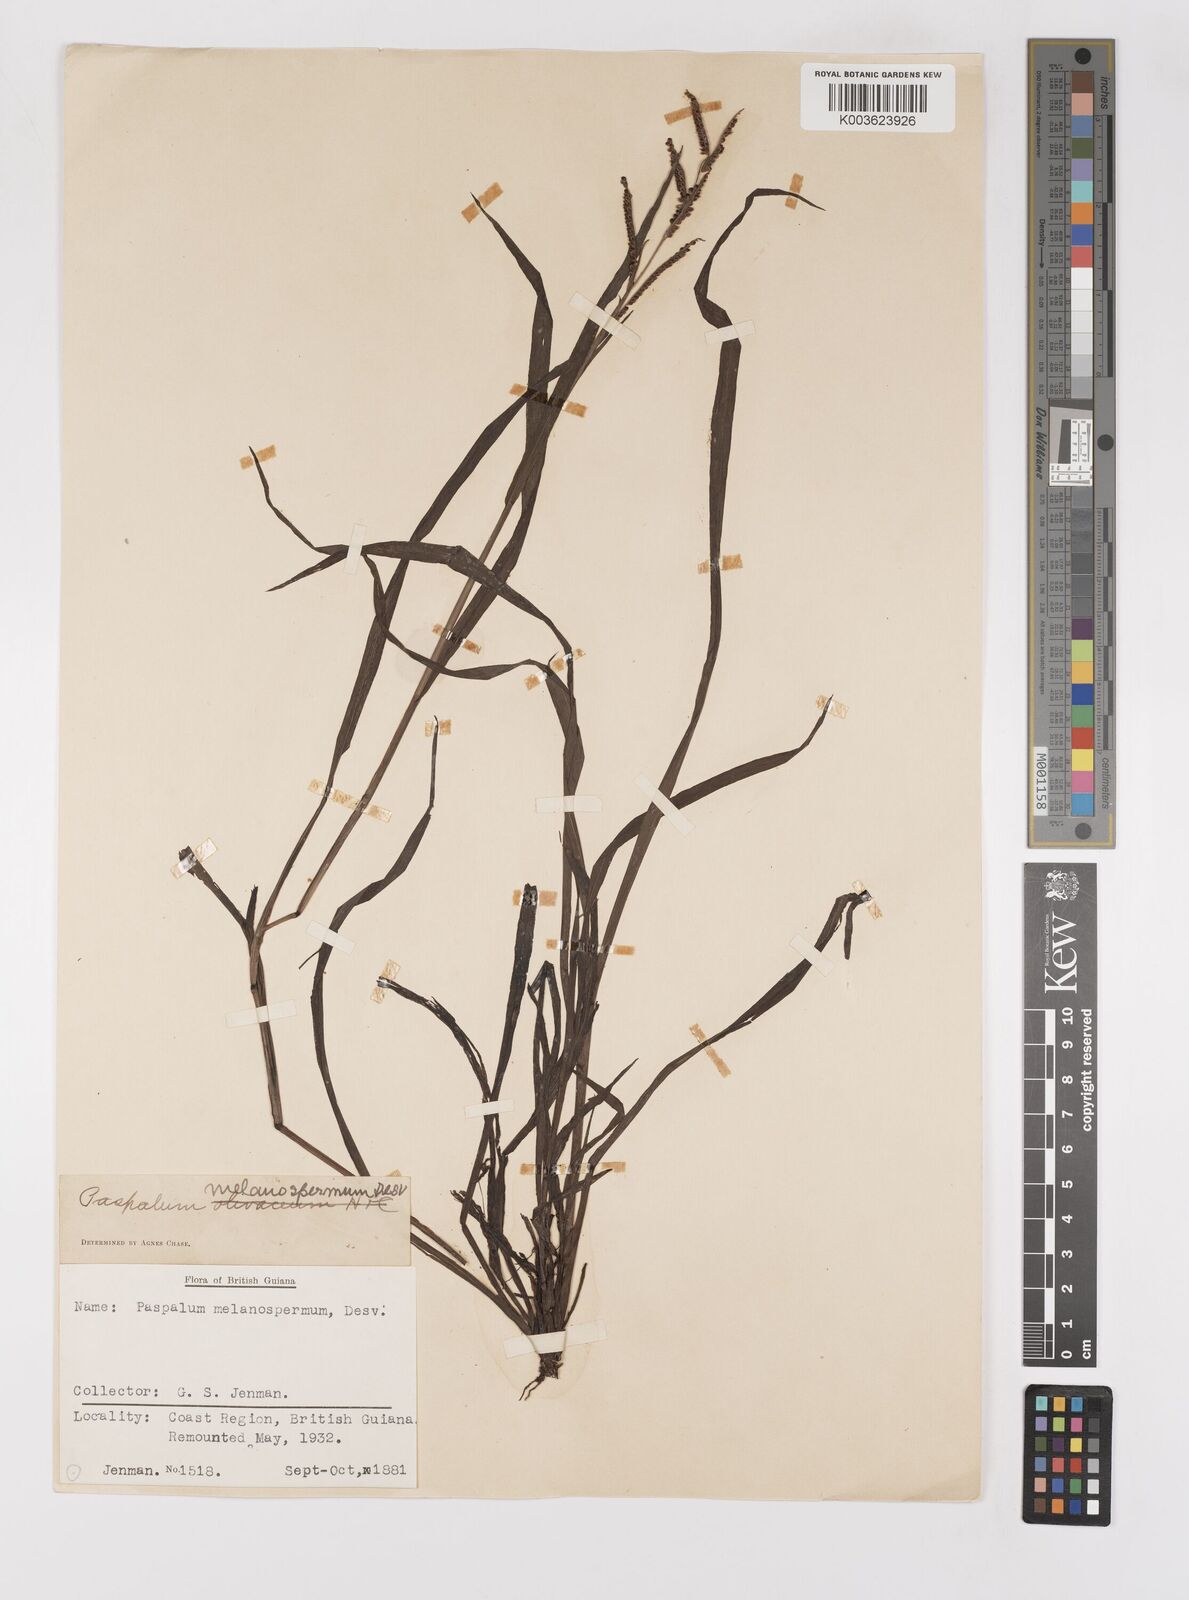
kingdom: Plantae
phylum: Tracheophyta
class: Liliopsida
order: Poales
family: Poaceae
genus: Paspalum
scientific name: Paspalum melanospermum
